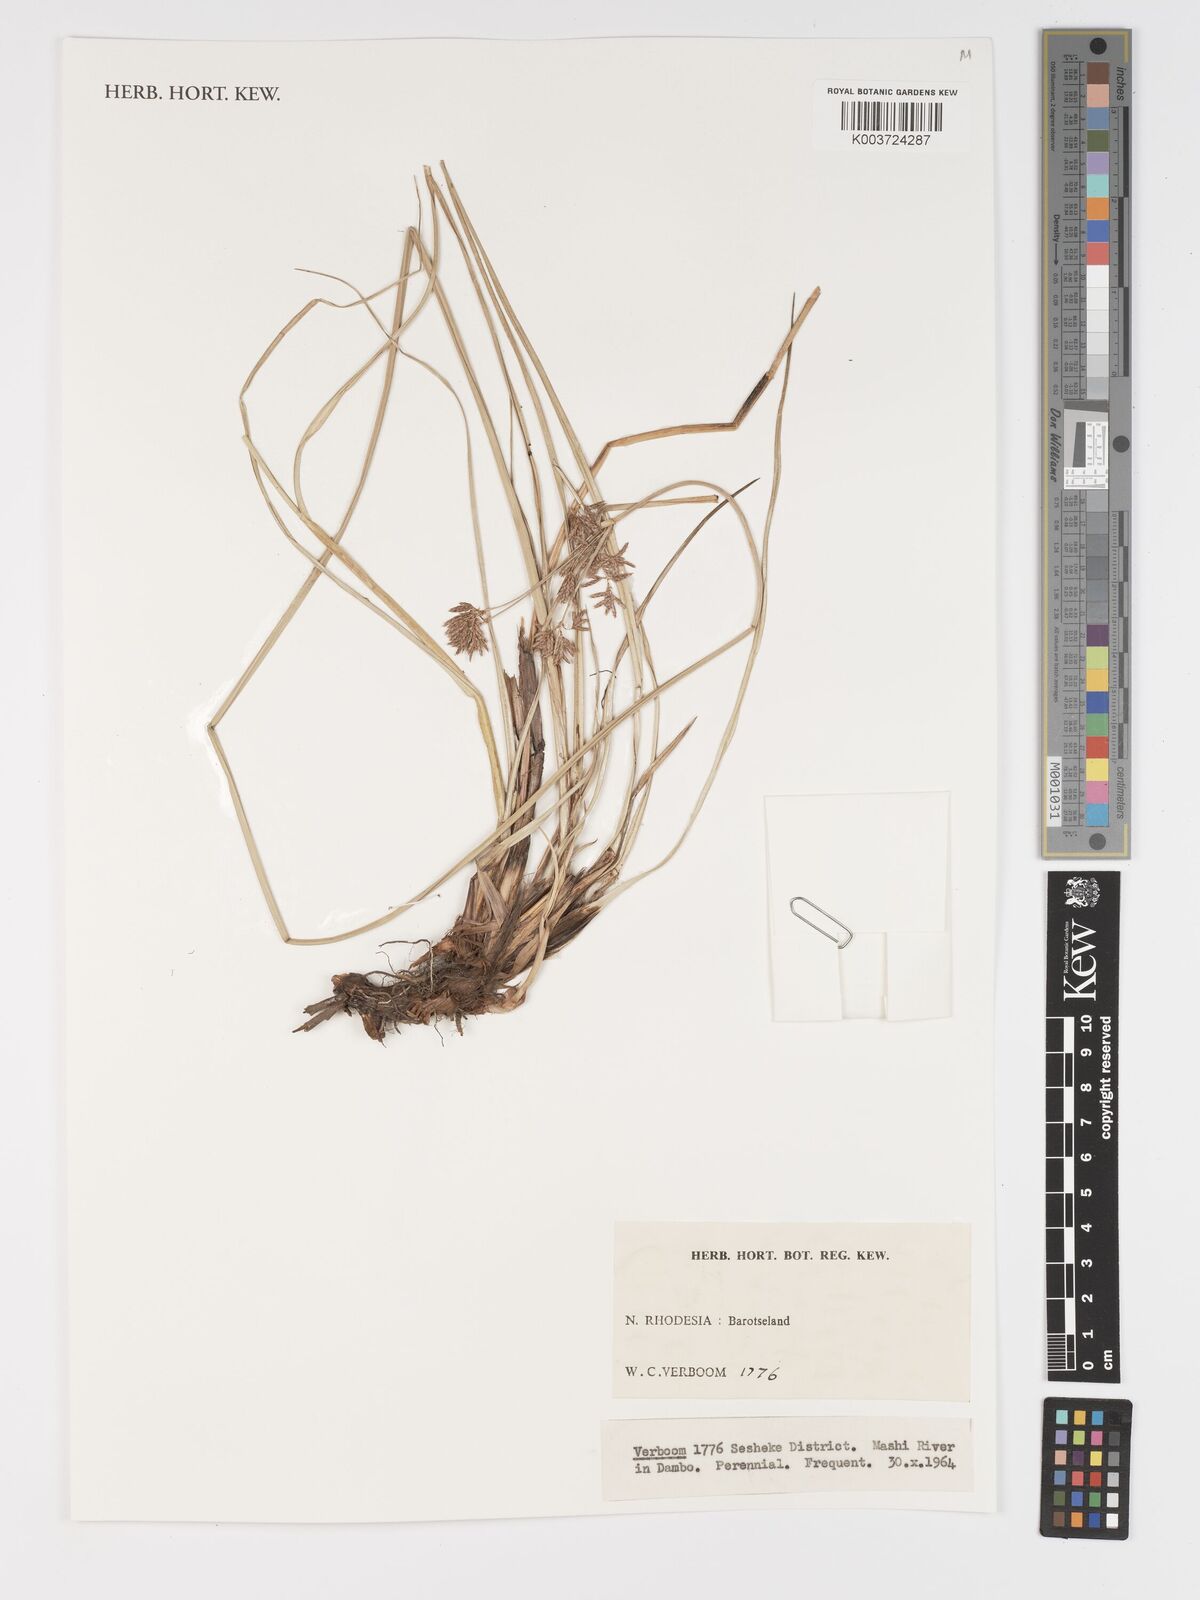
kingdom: Plantae
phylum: Tracheophyta
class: Liliopsida
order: Poales
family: Cyperaceae
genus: Cyperus
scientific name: Cyperus
